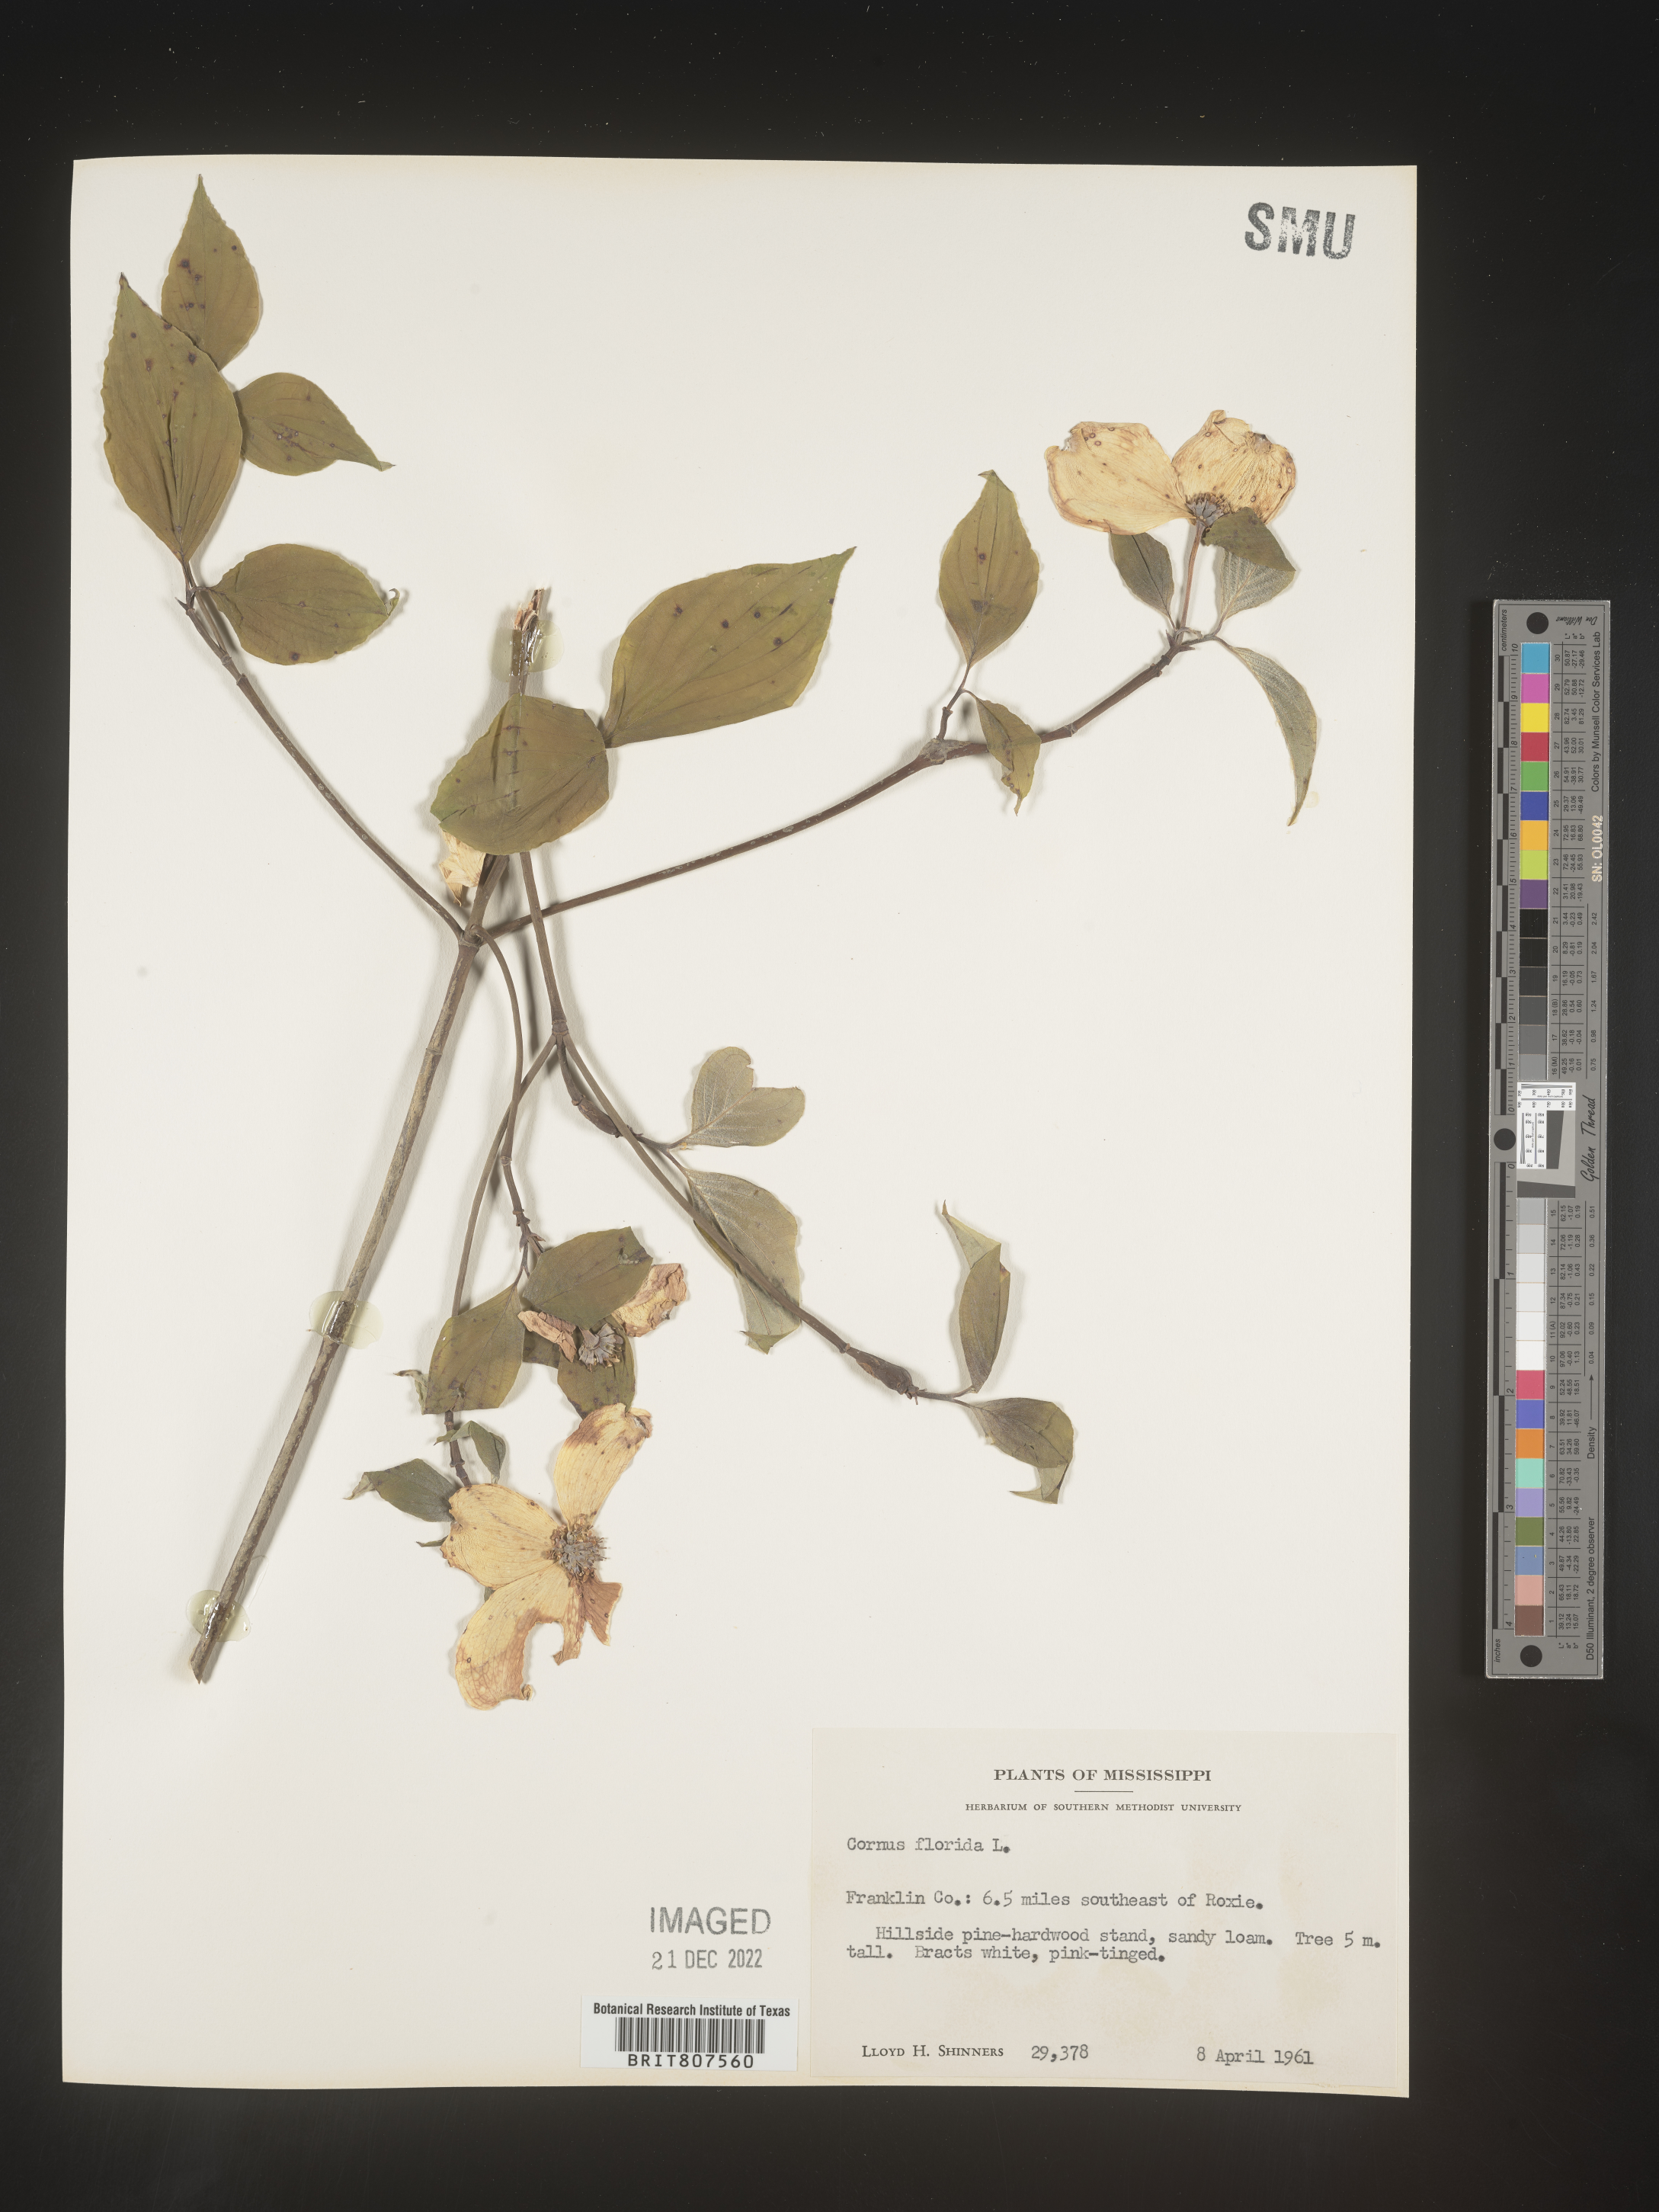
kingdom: Plantae
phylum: Tracheophyta
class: Magnoliopsida
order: Cornales
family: Cornaceae
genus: Cornus
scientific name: Cornus florida
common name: Flowering dogwood
